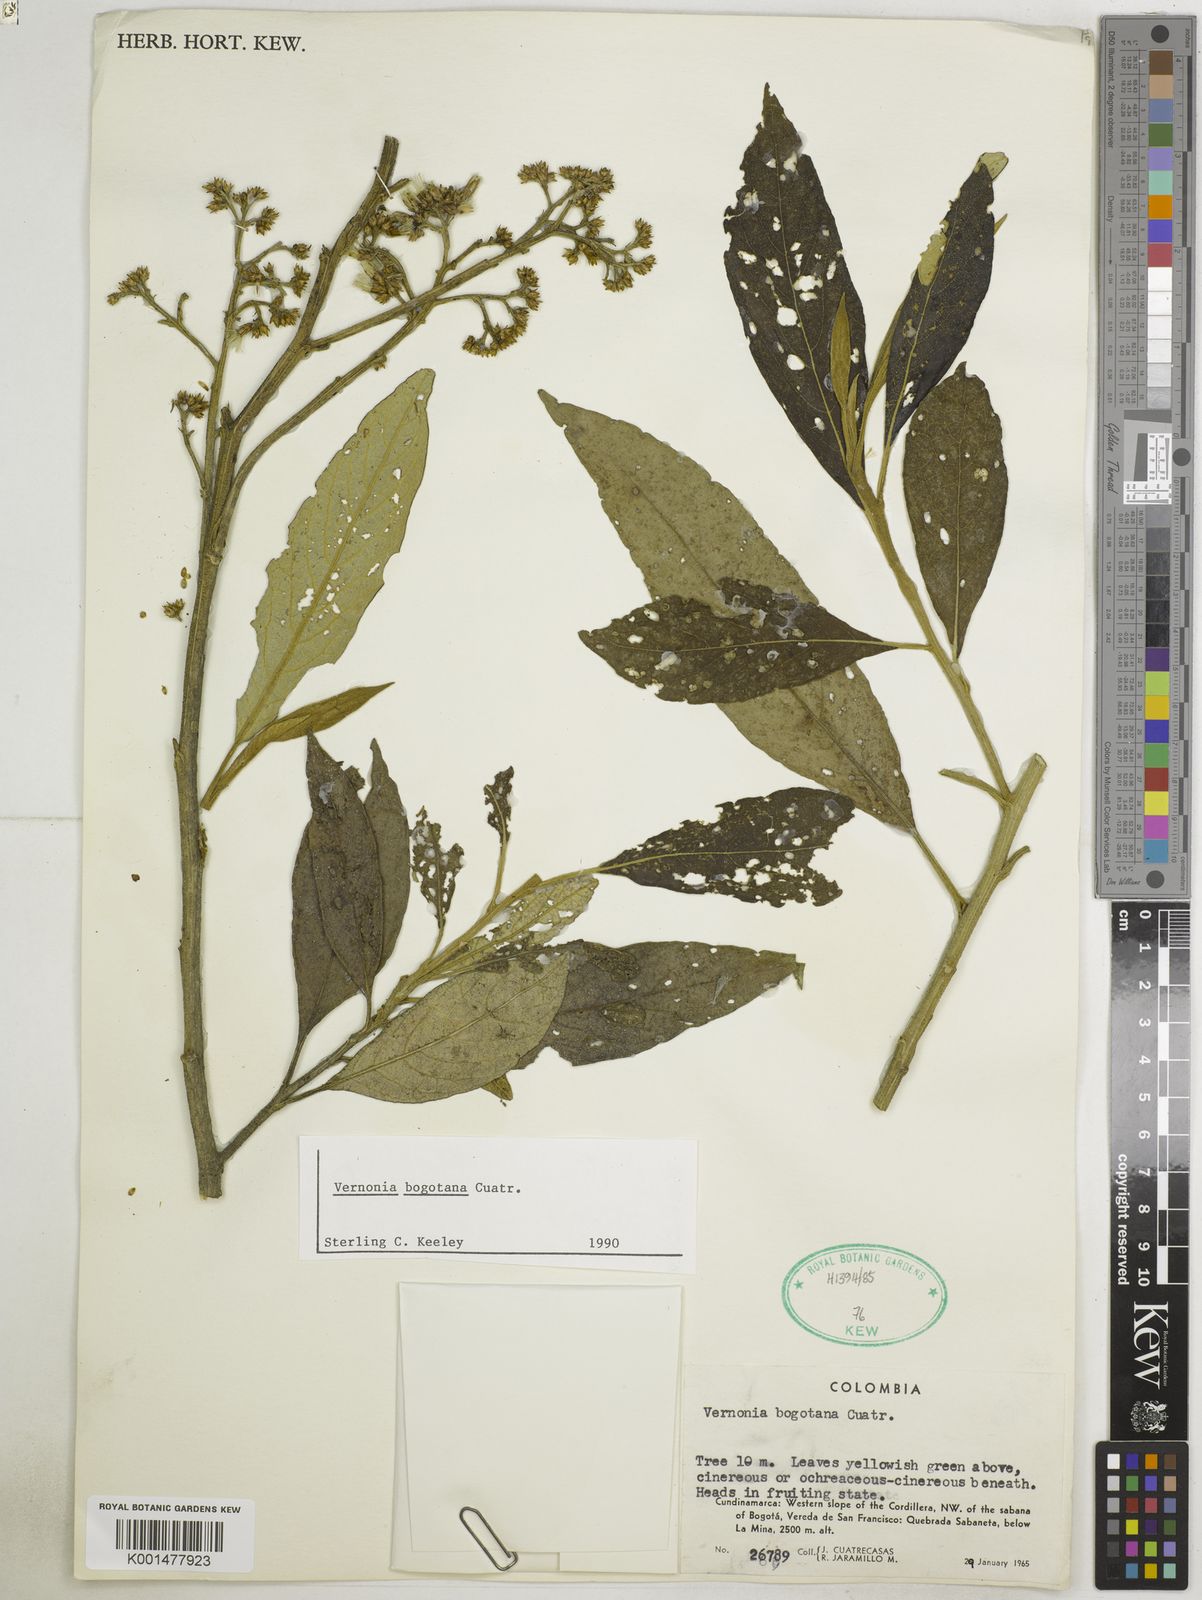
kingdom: Plantae
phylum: Tracheophyta
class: Magnoliopsida
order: Asterales
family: Asteraceae
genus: Critoniopsis
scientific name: Critoniopsis bogotana
